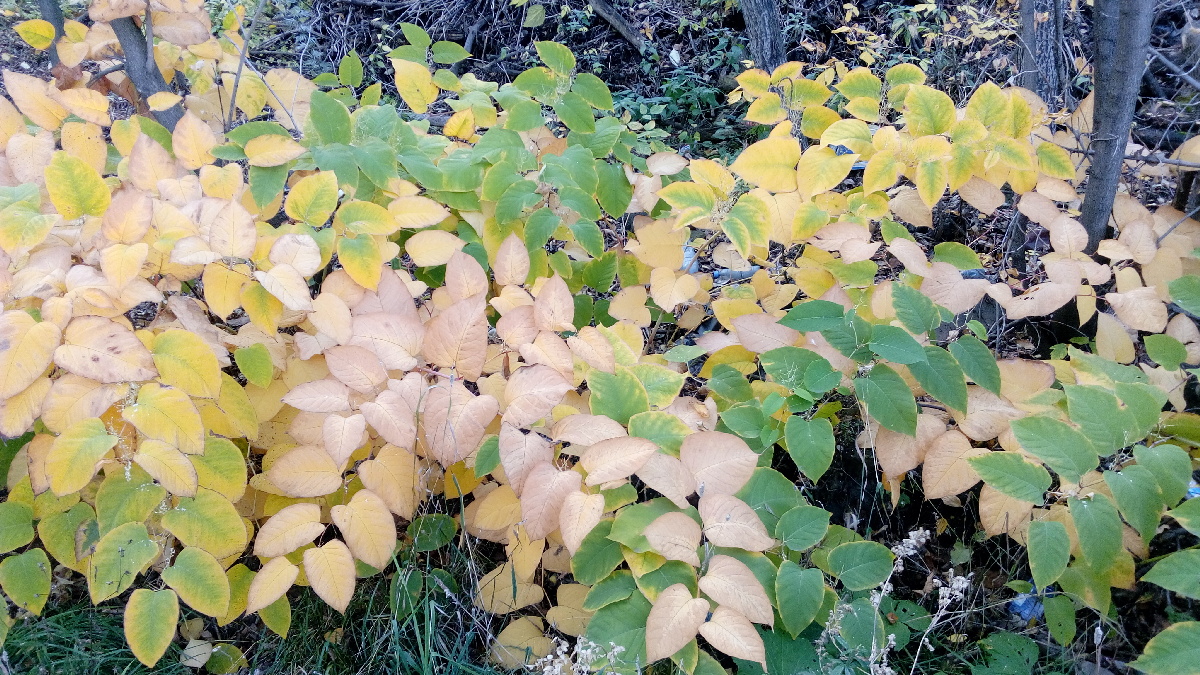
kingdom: Plantae
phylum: Tracheophyta
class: Magnoliopsida
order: Caryophyllales
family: Polygonaceae
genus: Reynoutria
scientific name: Reynoutria sachalinensis
